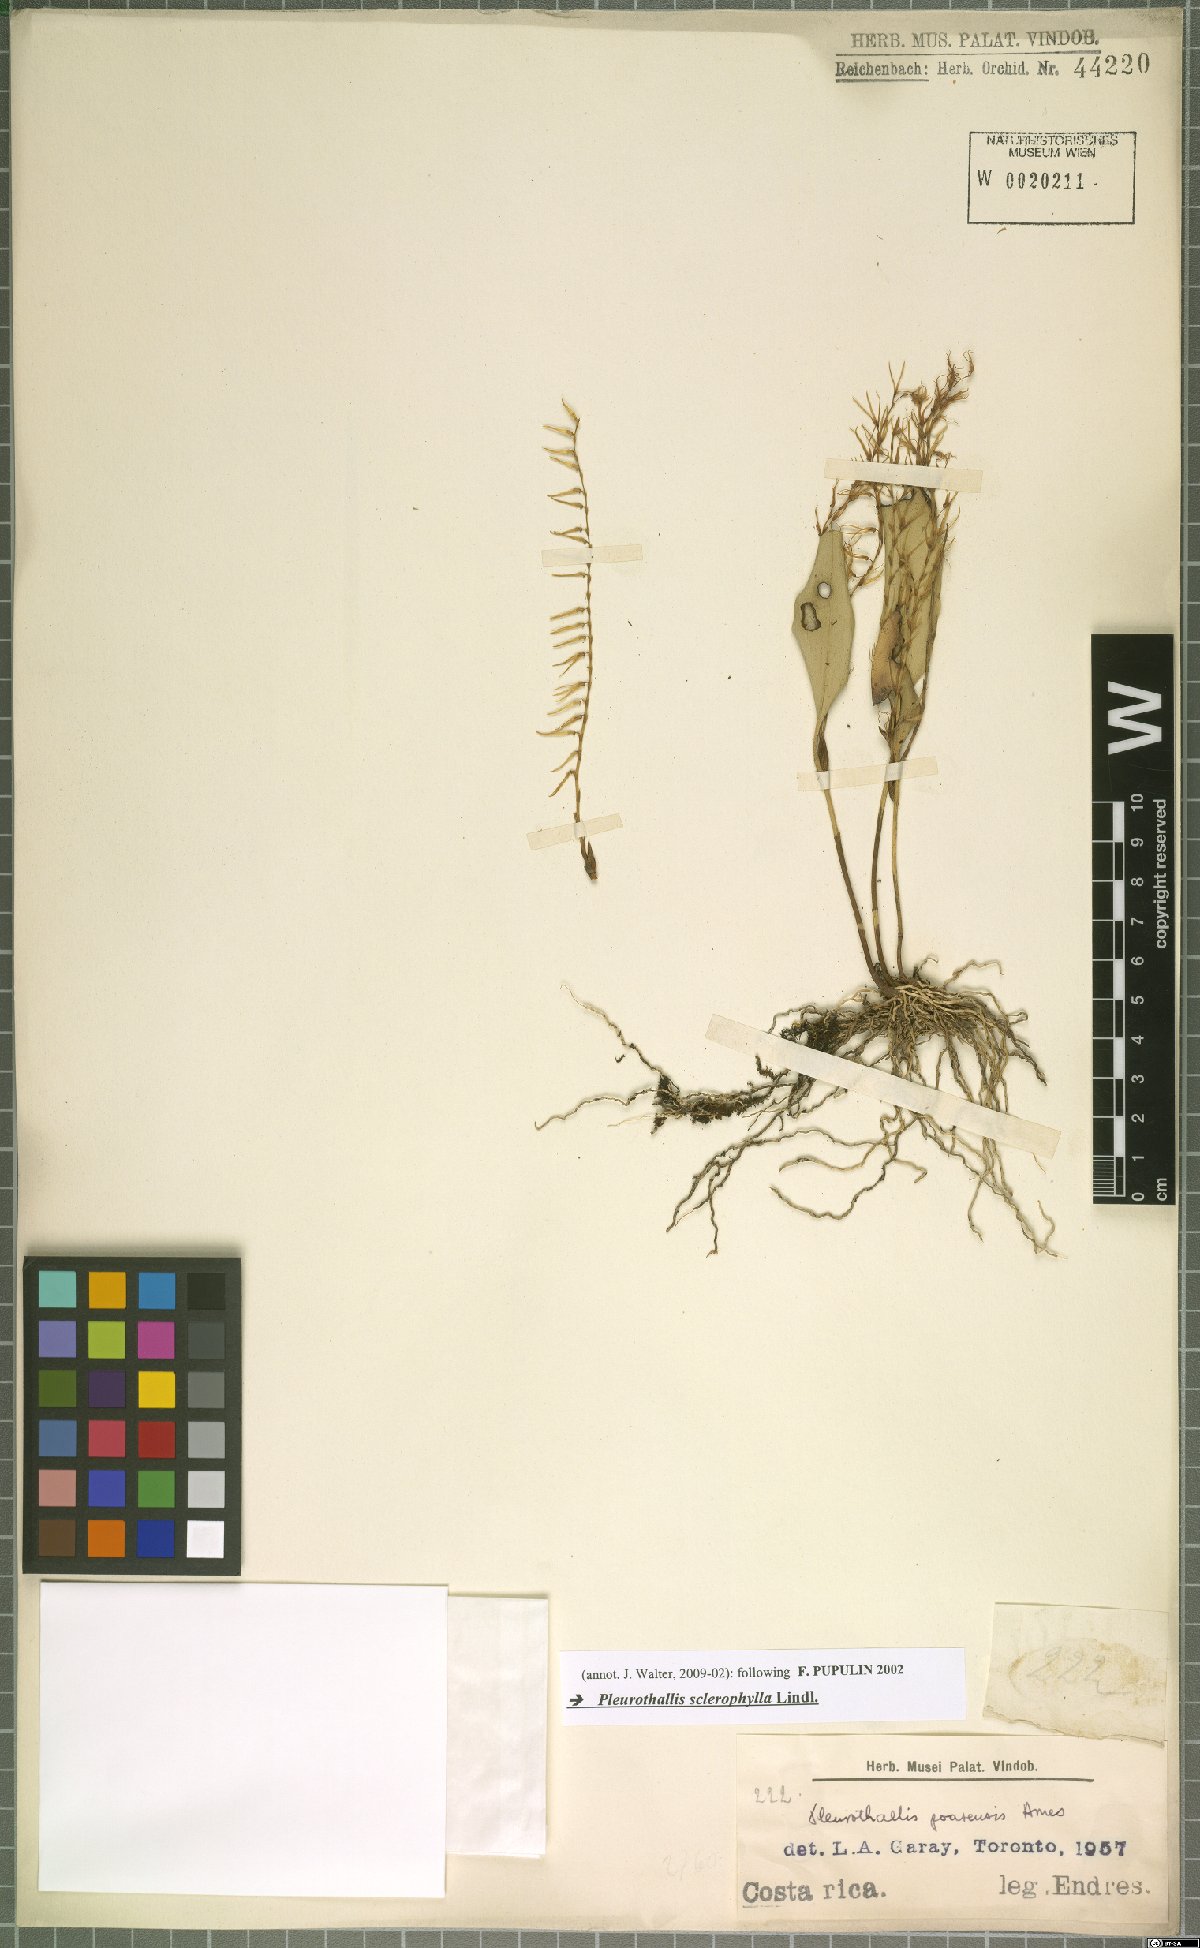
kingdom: Plantae
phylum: Tracheophyta
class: Liliopsida
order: Asparagales
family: Orchidaceae
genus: Stelis
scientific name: Stelis sclerophylla
